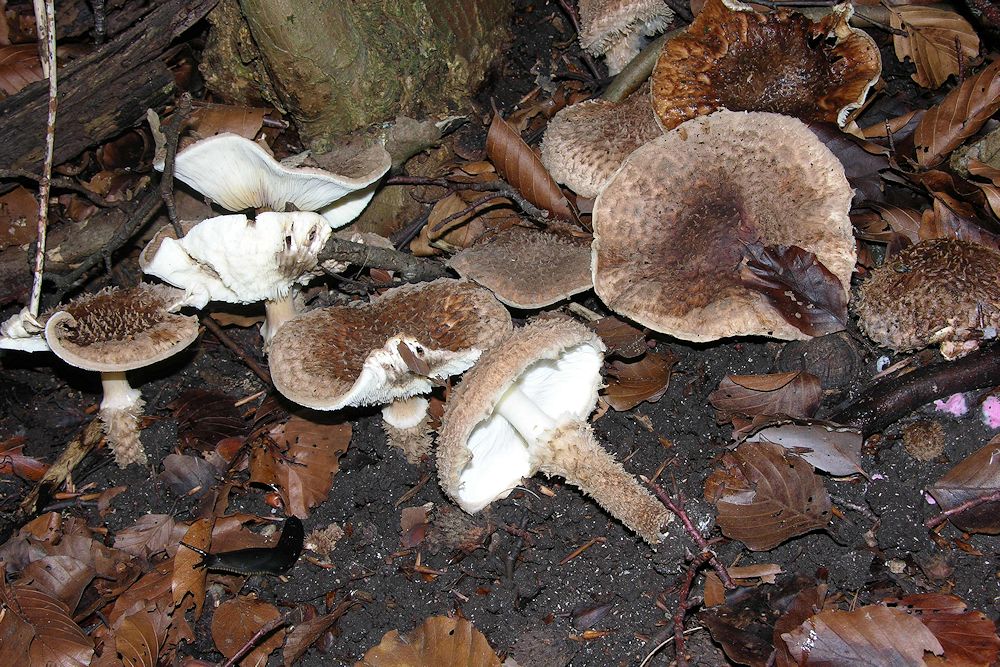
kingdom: Fungi
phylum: Basidiomycota
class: Agaricomycetes
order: Agaricales
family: Agaricaceae
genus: Echinoderma
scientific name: Echinoderma calcicola
